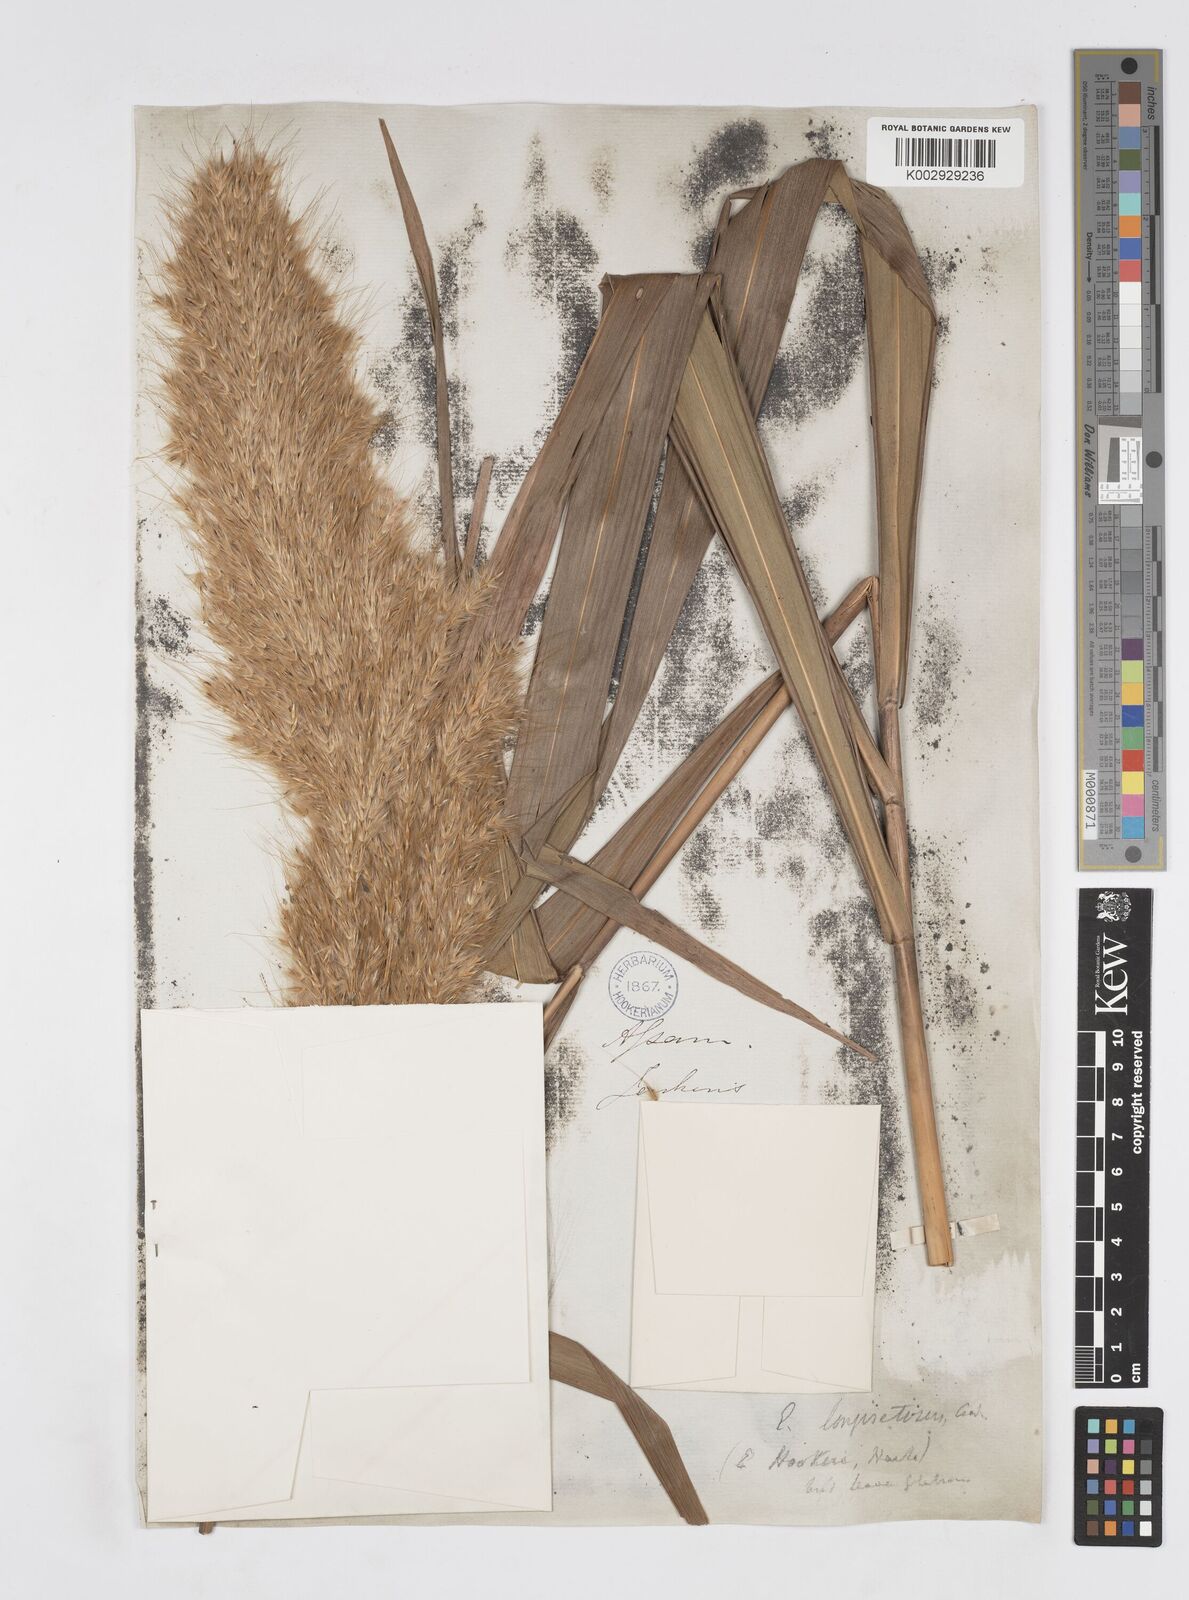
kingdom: Plantae
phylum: Tracheophyta
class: Liliopsida
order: Poales
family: Poaceae
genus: Saccharum
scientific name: Saccharum longesetosum
